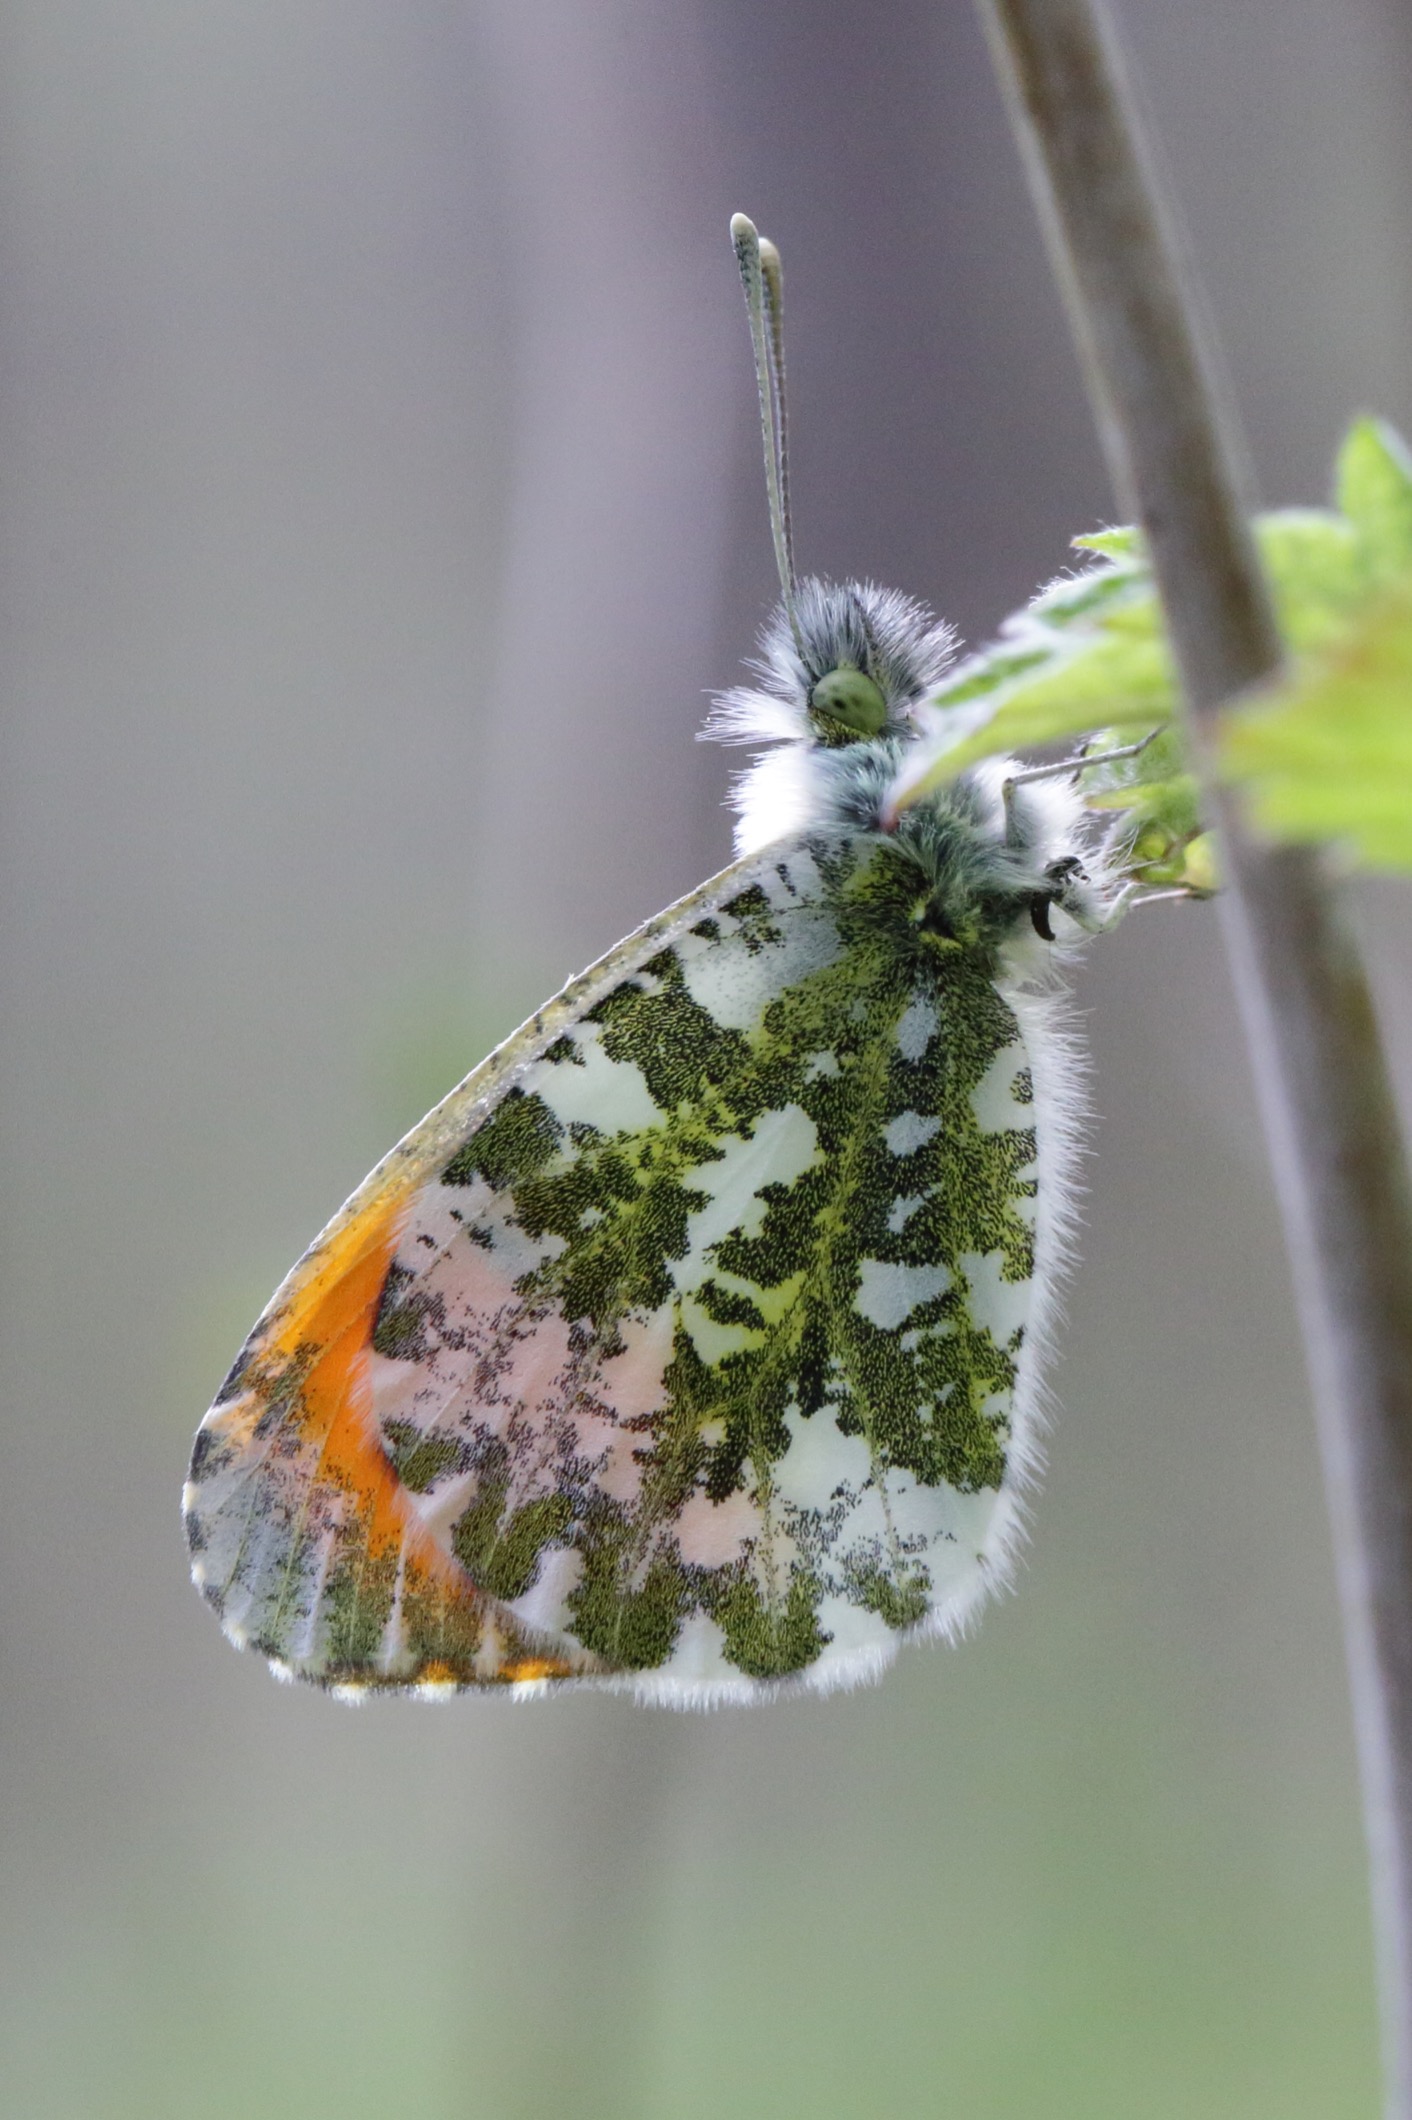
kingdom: Animalia
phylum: Arthropoda
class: Insecta
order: Lepidoptera
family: Pieridae
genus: Anthocharis
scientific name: Anthocharis cardamines
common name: Aurora
